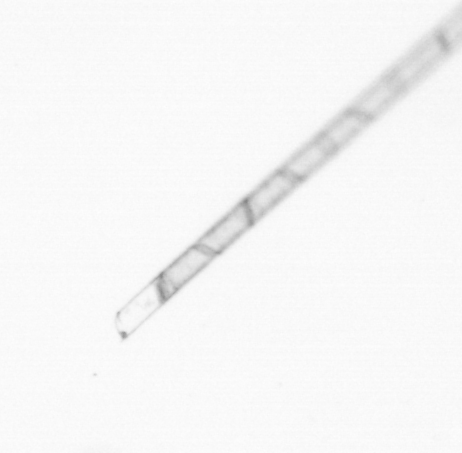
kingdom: Chromista
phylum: Ochrophyta
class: Bacillariophyceae
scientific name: Bacillariophyceae
